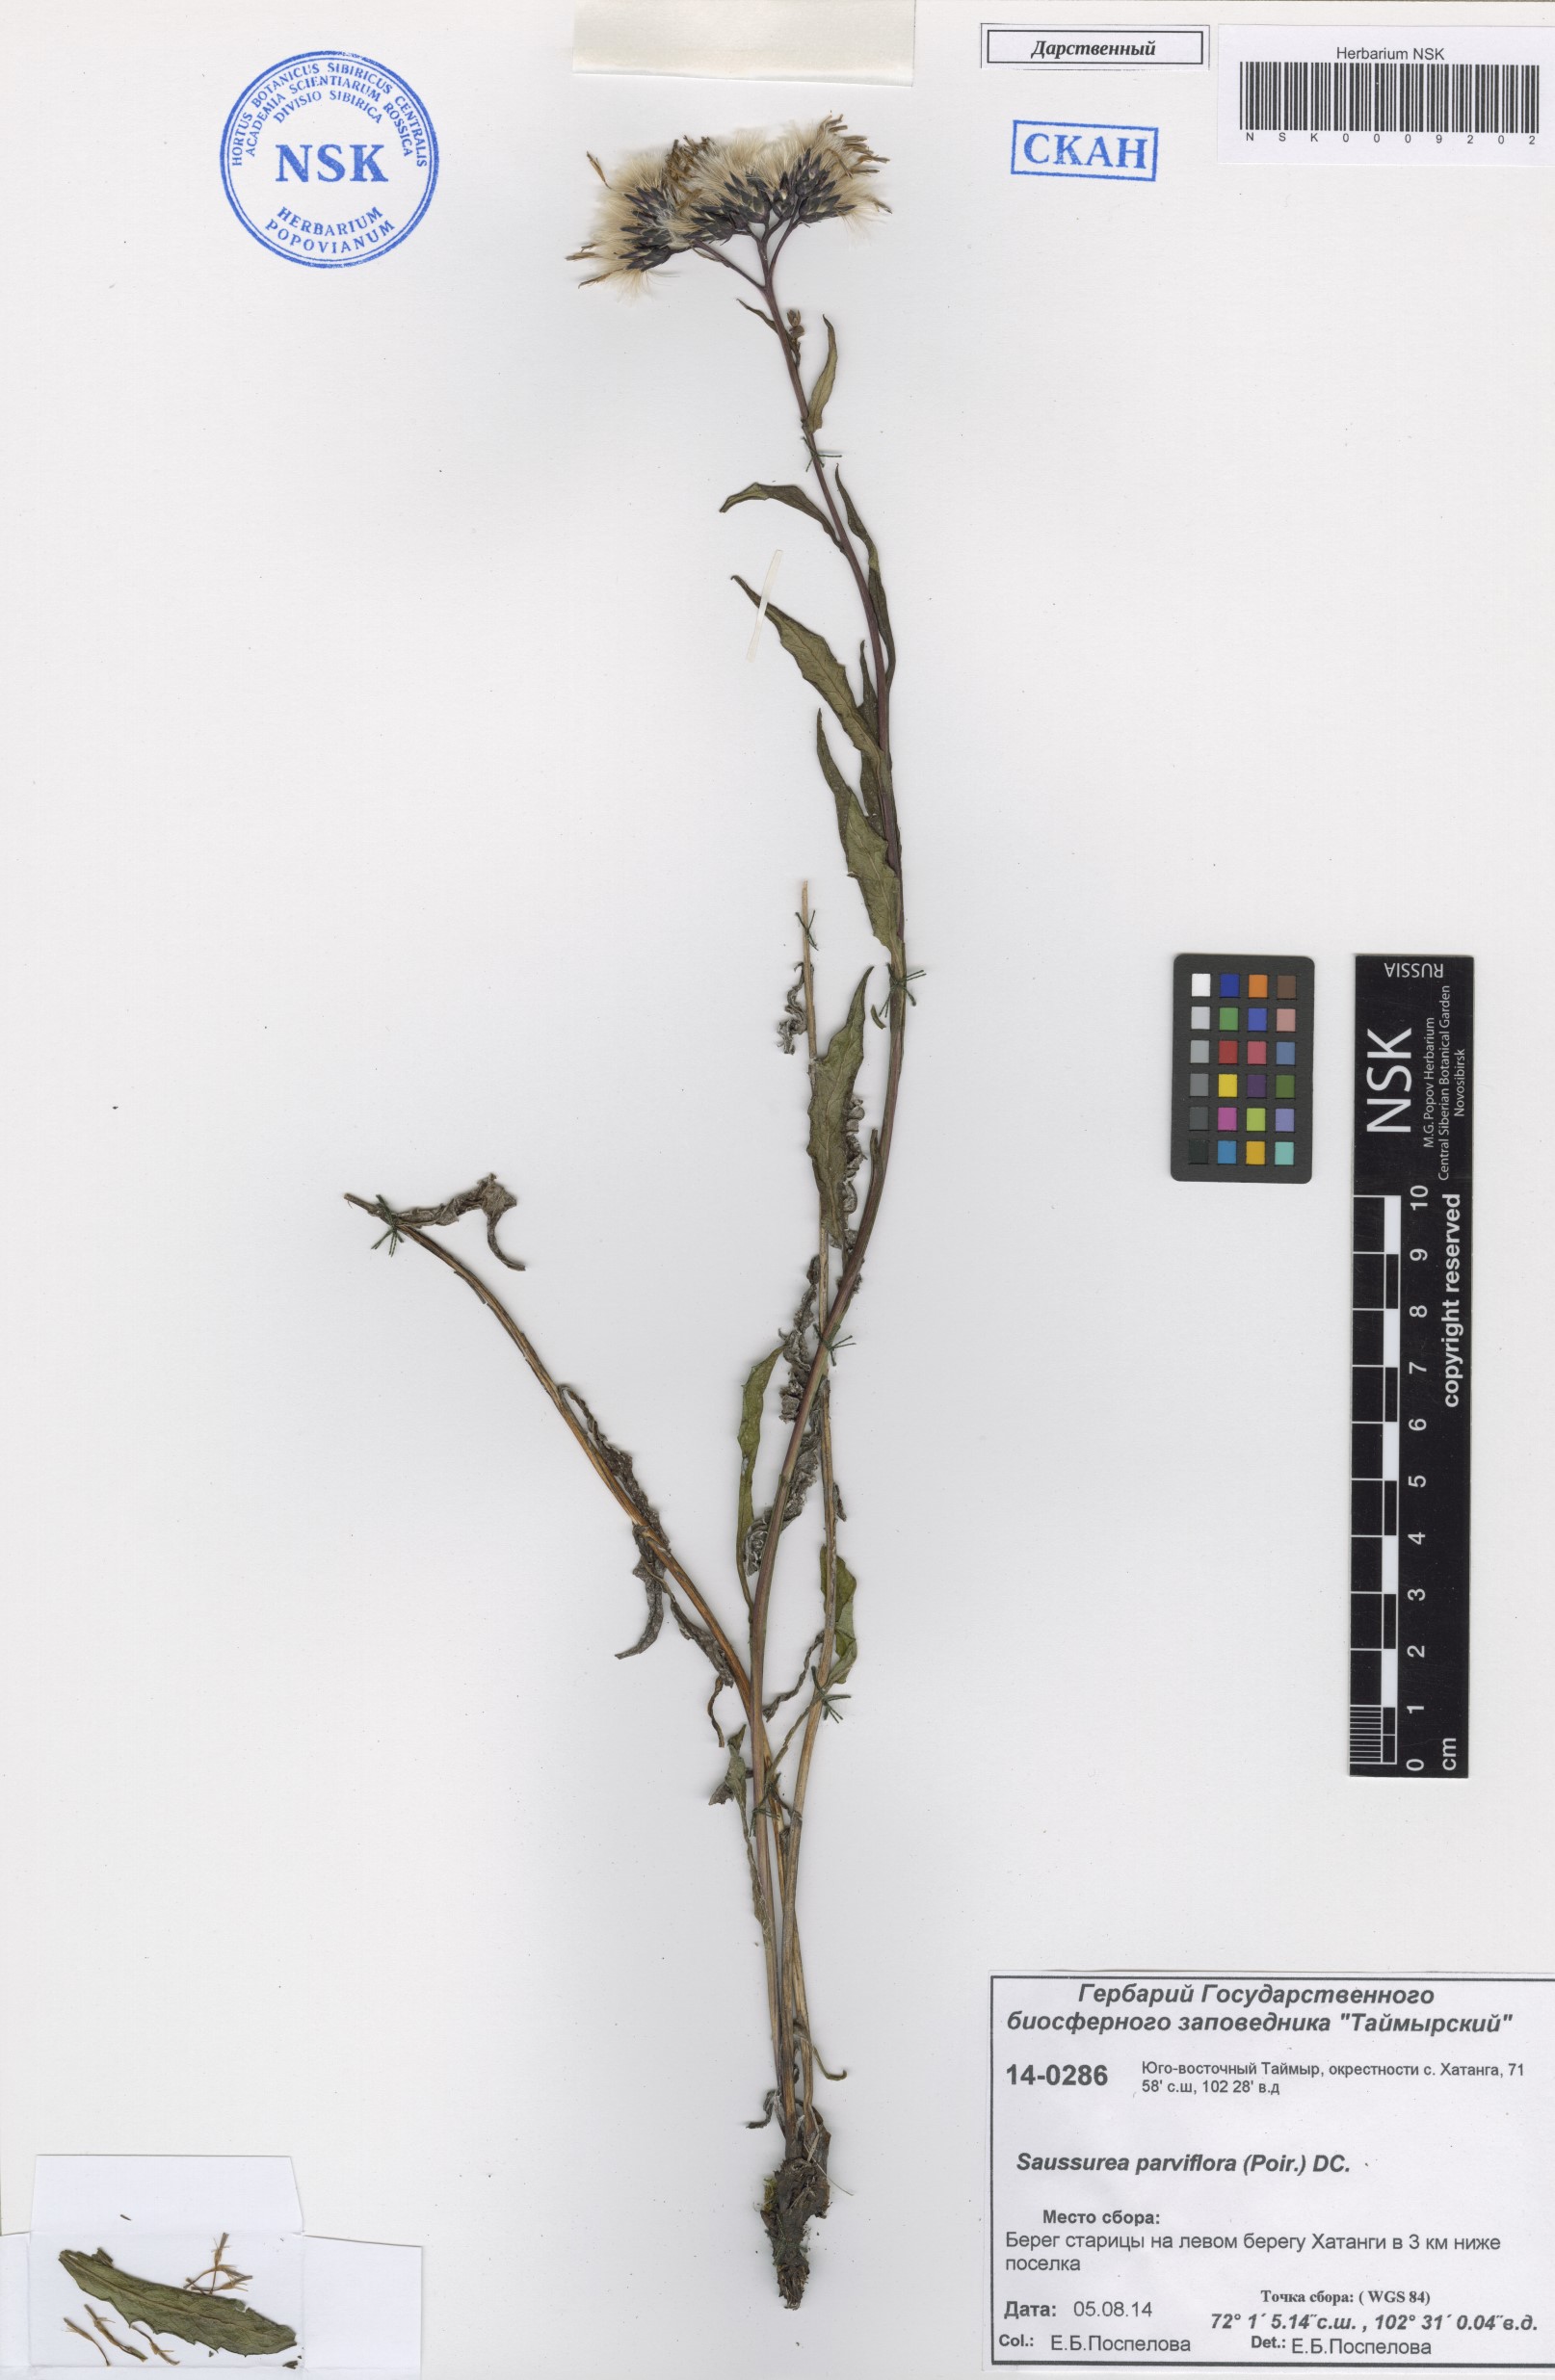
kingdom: Plantae
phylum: Tracheophyta
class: Magnoliopsida
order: Asterales
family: Asteraceae
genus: Saussurea
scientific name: Saussurea parviflora
